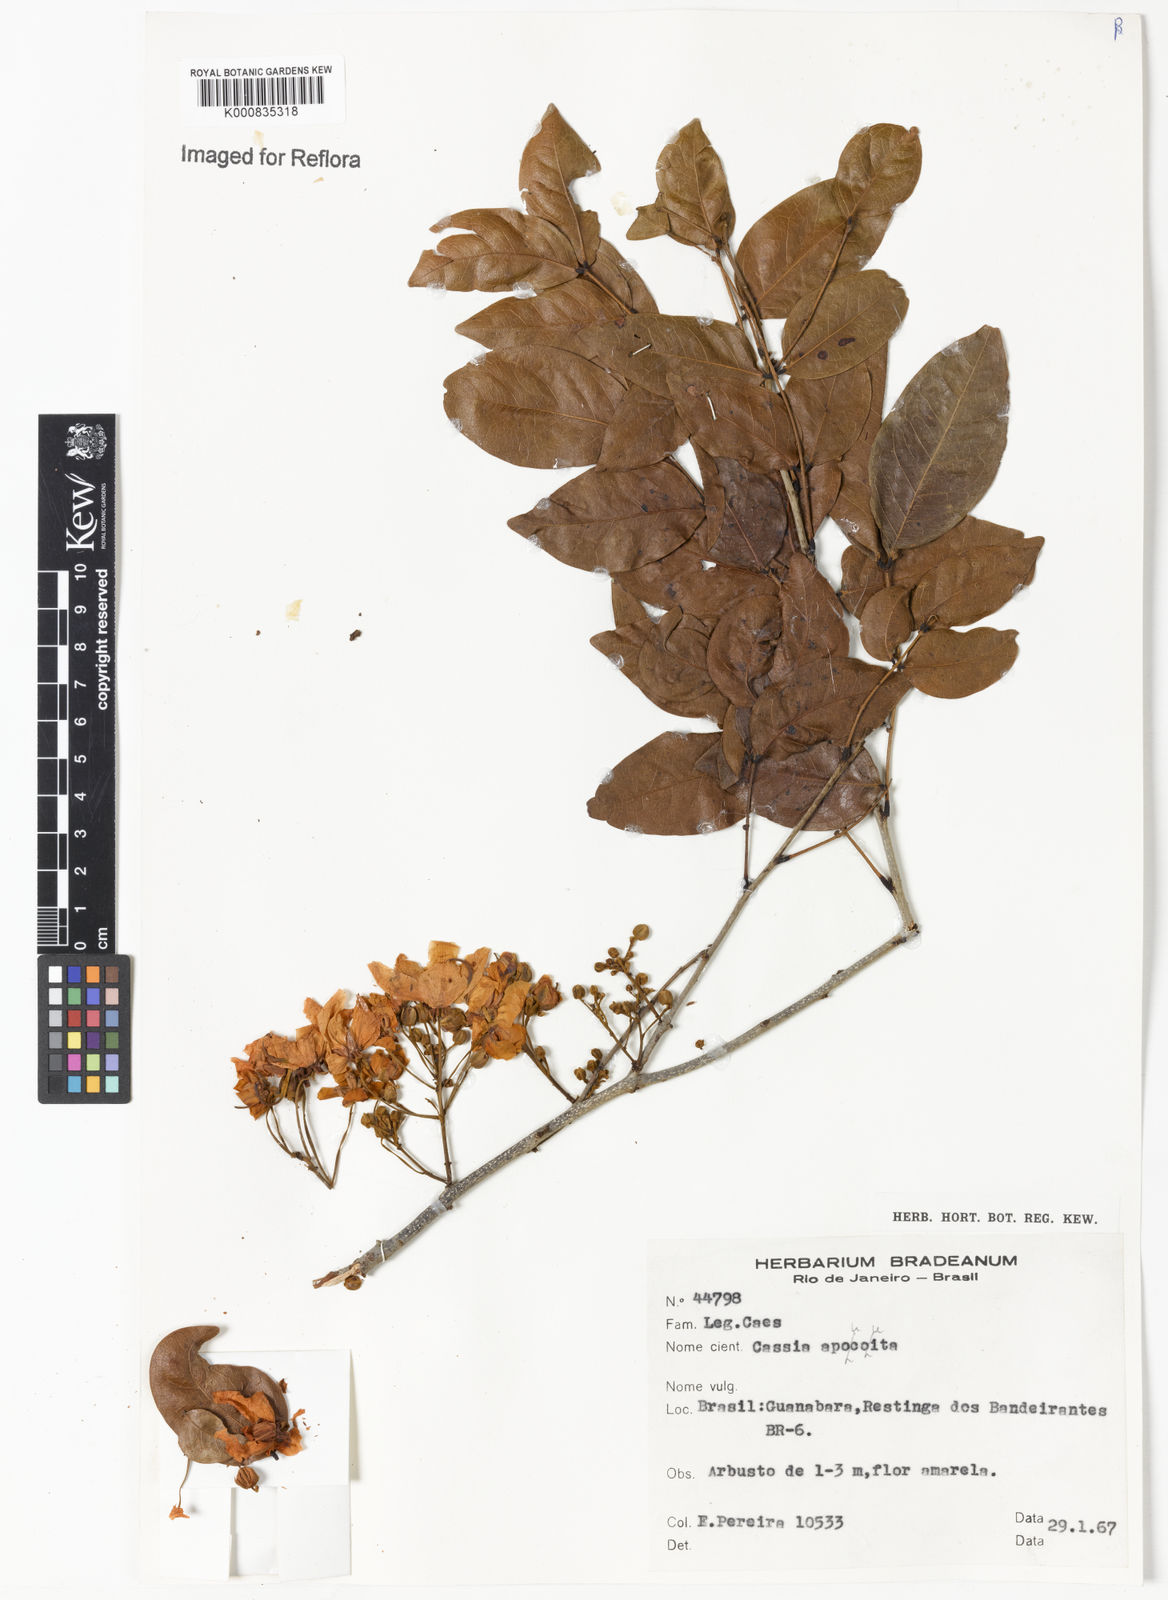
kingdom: Plantae
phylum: Tracheophyta
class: Magnoliopsida
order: Fabales
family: Fabaceae
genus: Chamaecrista
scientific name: Chamaecrista apoucouita
